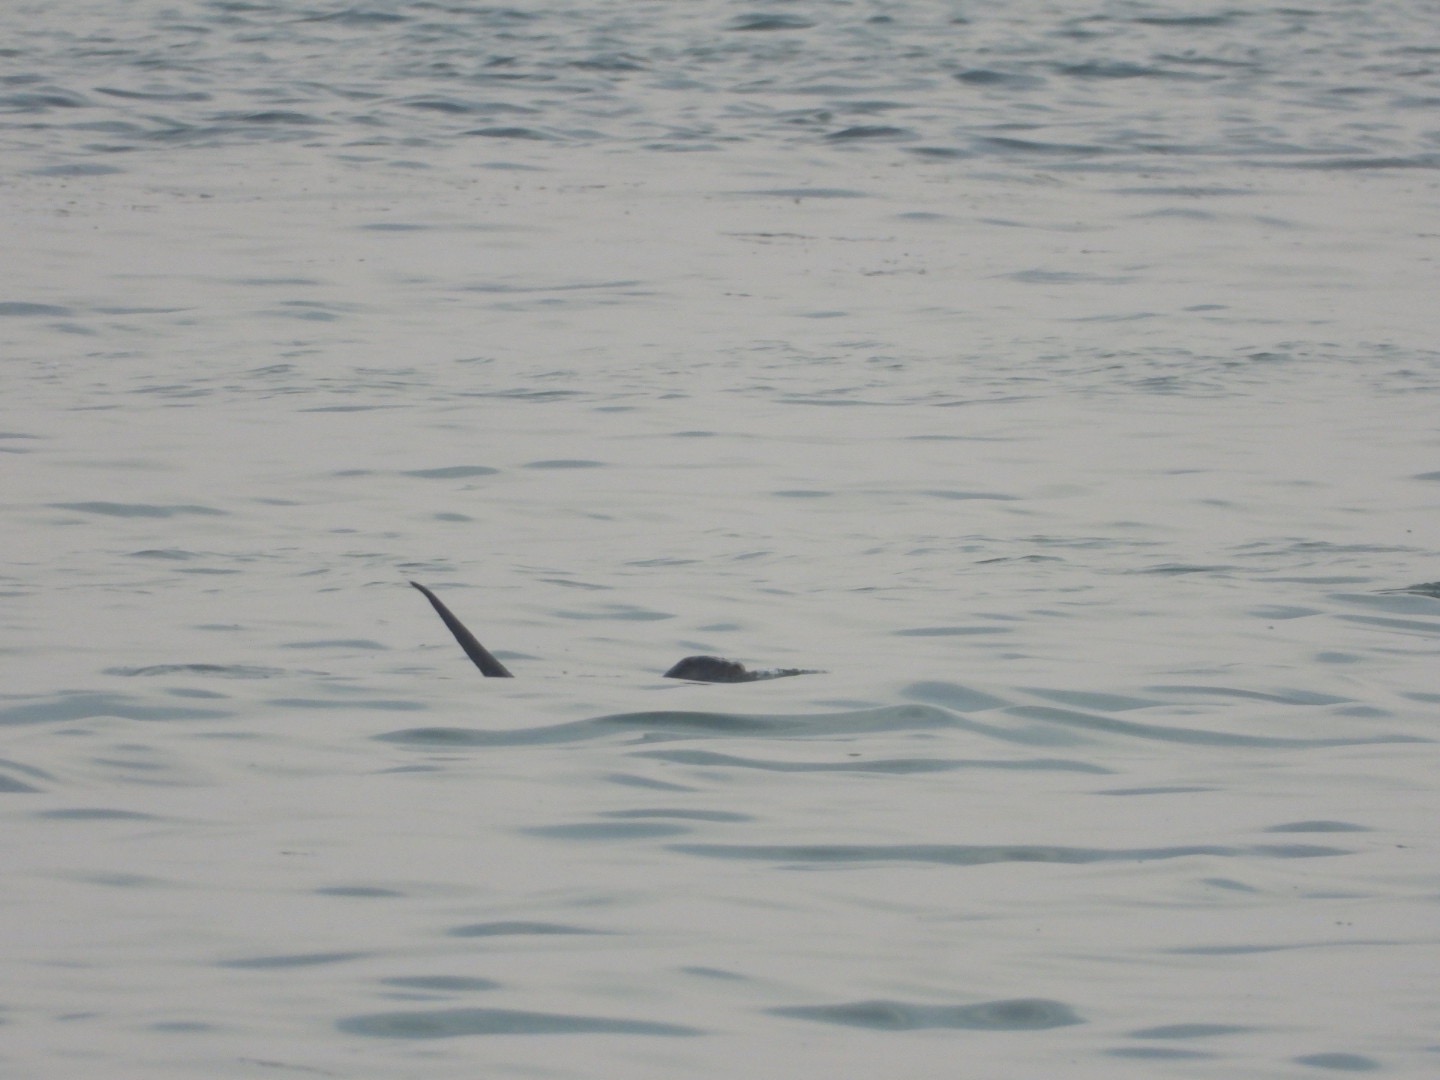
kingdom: Animalia
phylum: Chordata
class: Mammalia
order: Carnivora
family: Mustelidae
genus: Lutra
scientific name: Lutra lutra
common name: Odder
